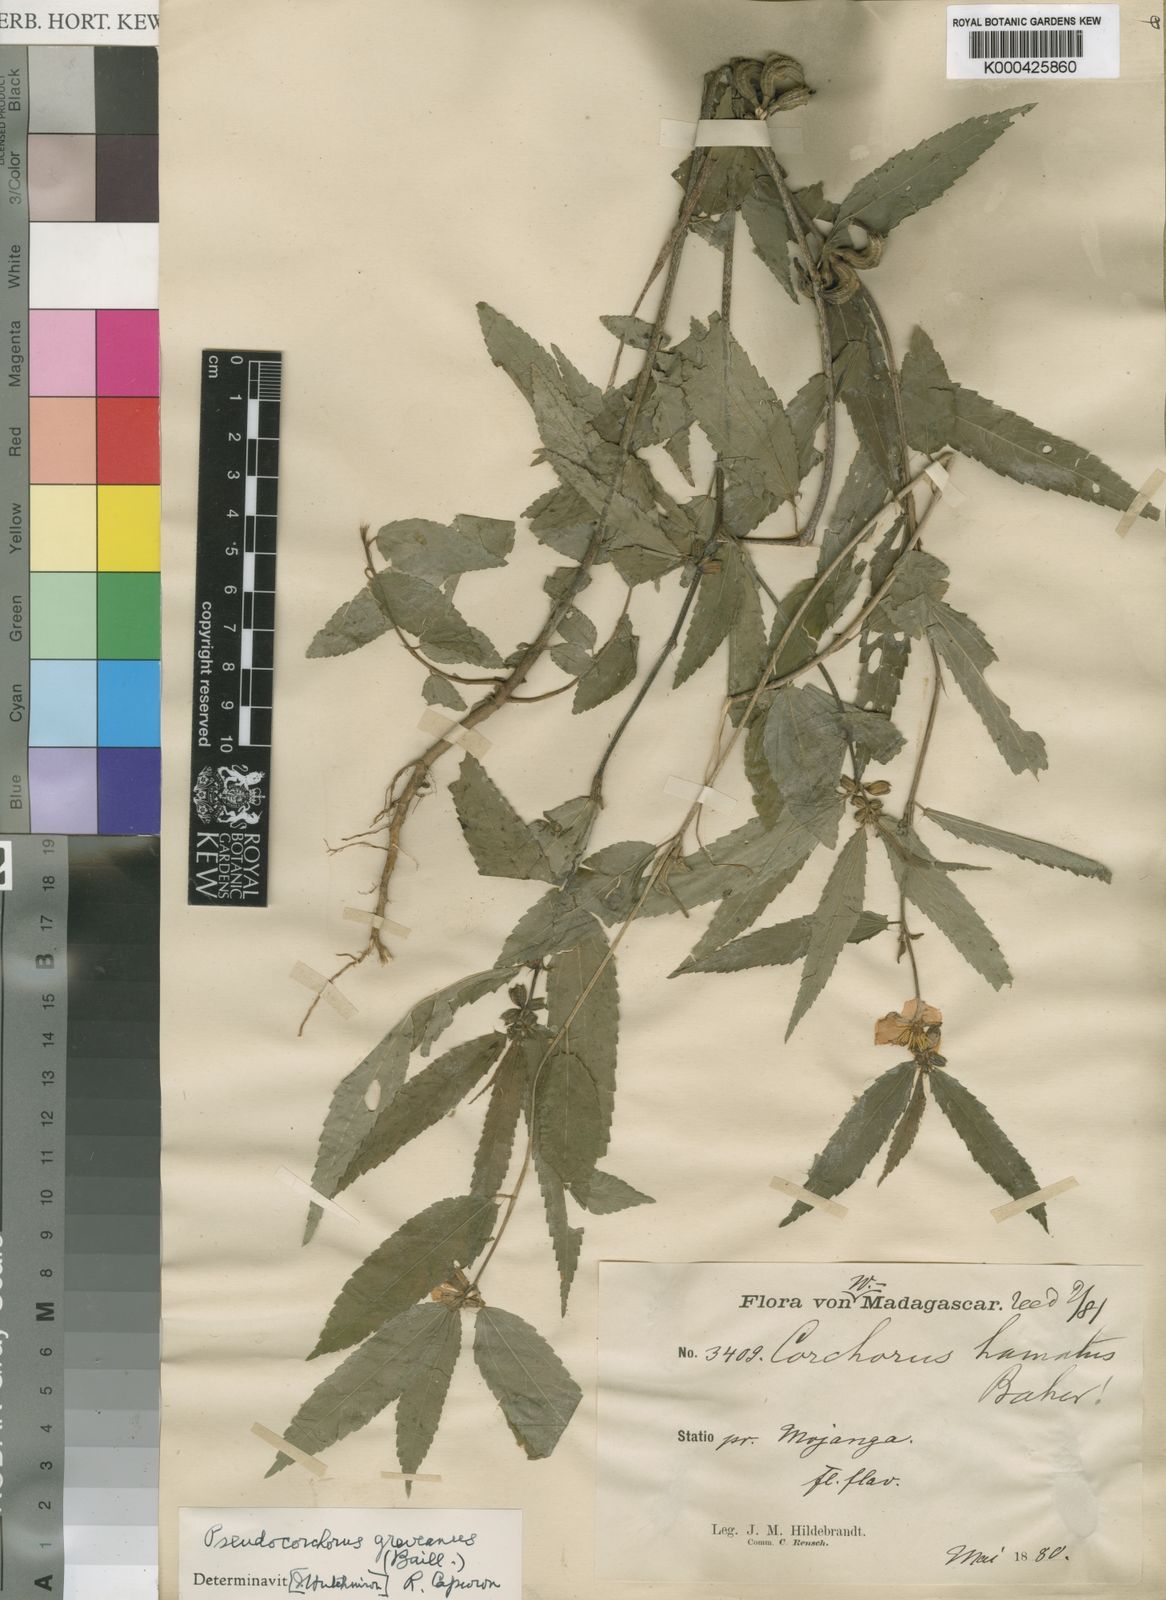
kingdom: Plantae
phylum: Tracheophyta
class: Magnoliopsida
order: Malvales
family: Malvaceae
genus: Pseudocorchorus
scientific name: Pseudocorchorus greveanus
